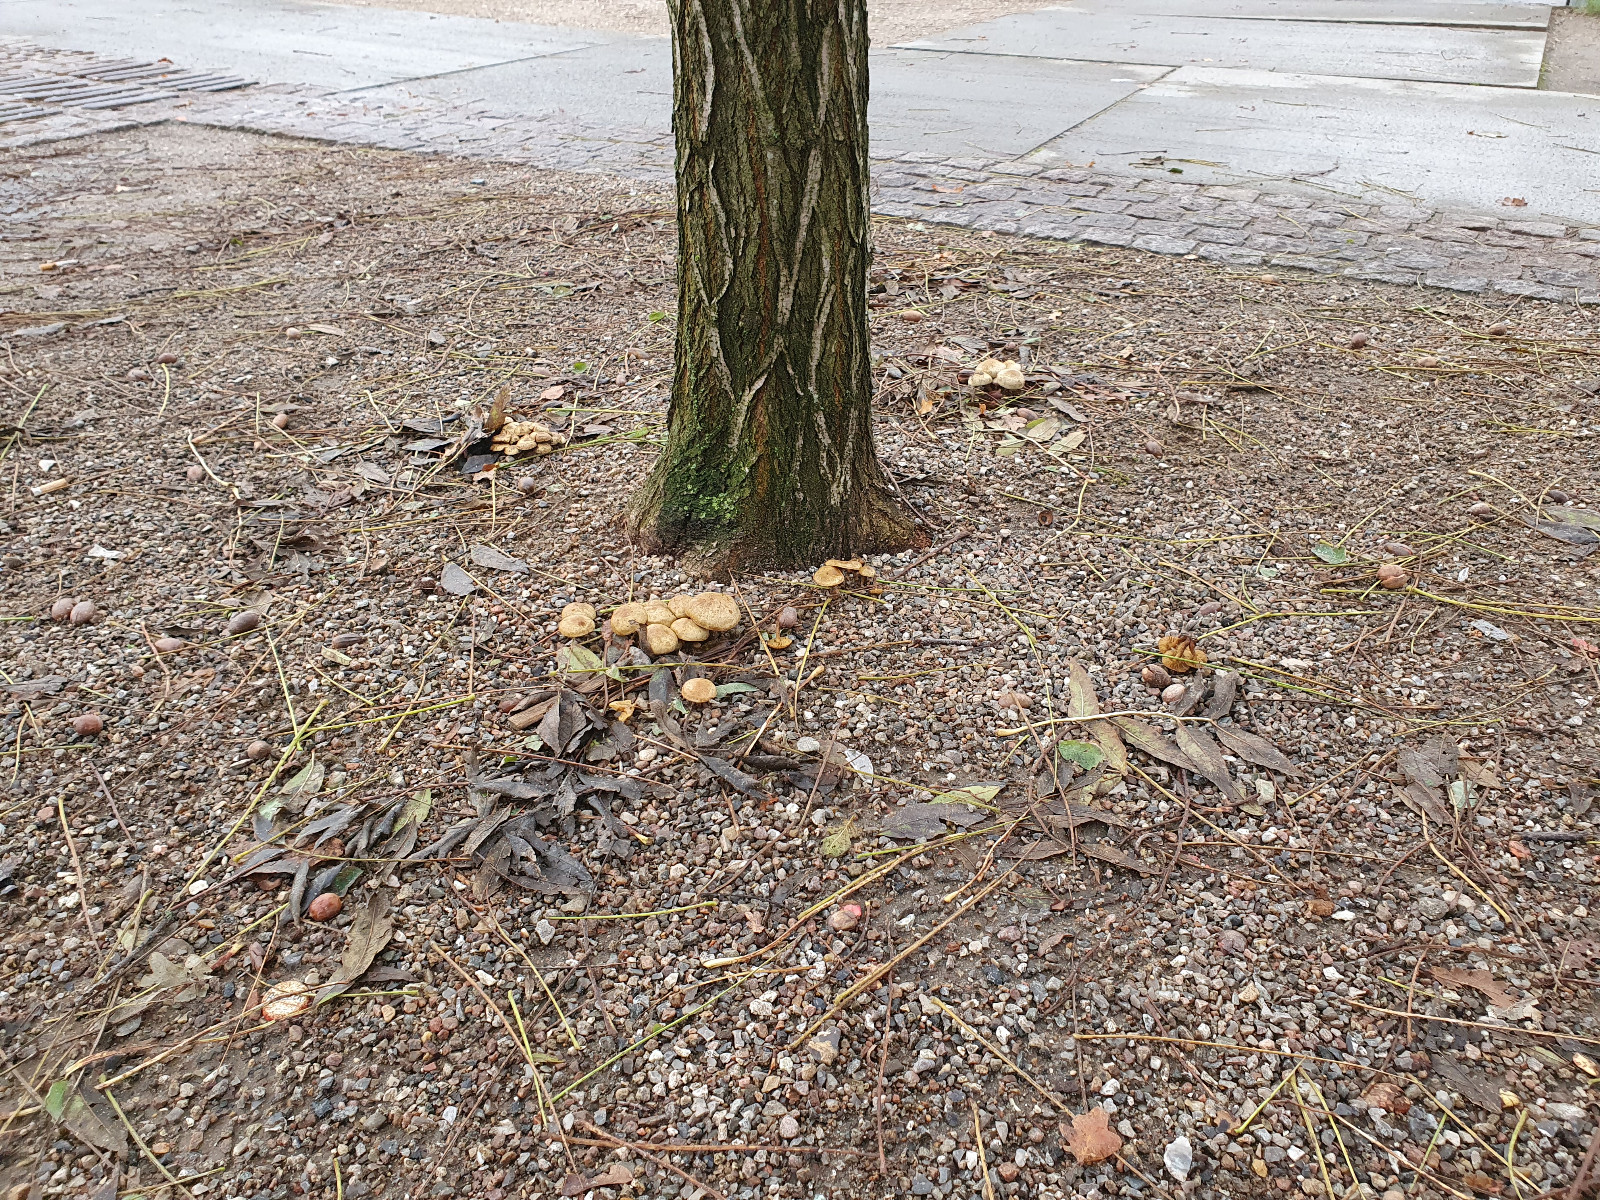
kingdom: Fungi
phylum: Basidiomycota
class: Agaricomycetes
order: Agaricales
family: Strophariaceae
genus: Pholiota
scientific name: Pholiota gummosa
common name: grøngul skælhat
